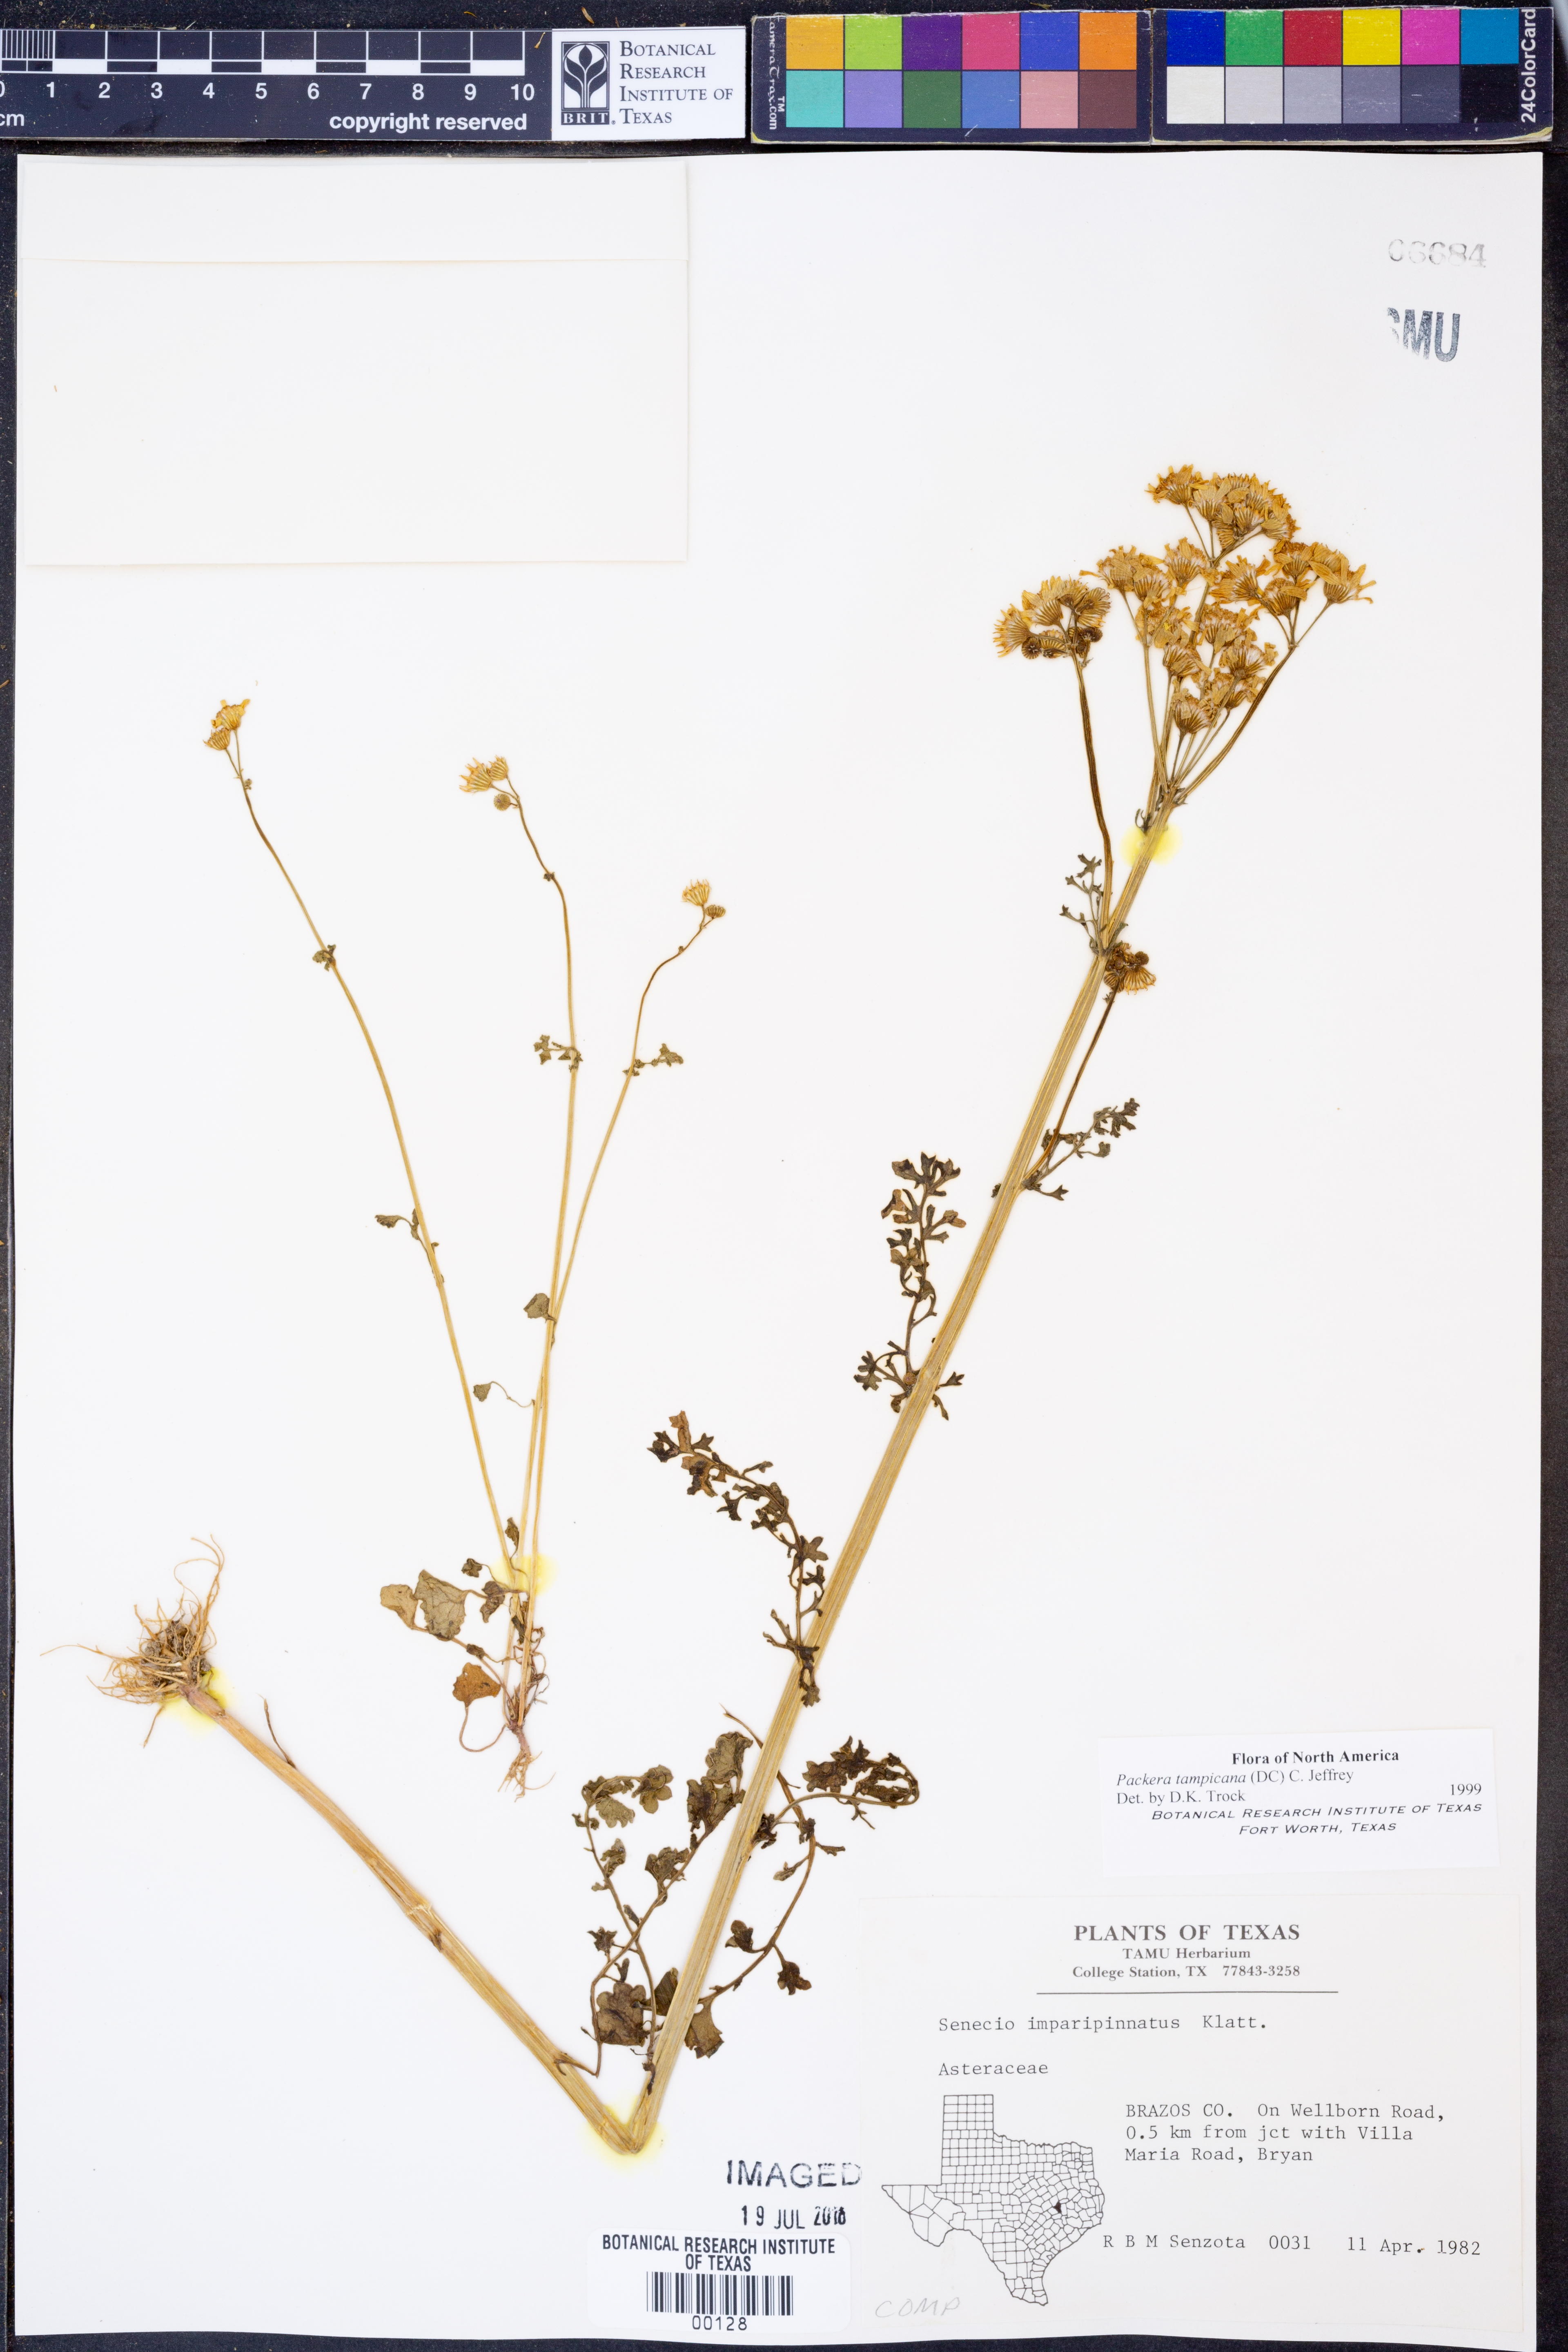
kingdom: Plantae
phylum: Tracheophyta
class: Magnoliopsida
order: Asterales
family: Asteraceae
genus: Packera
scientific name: Packera tampicana
